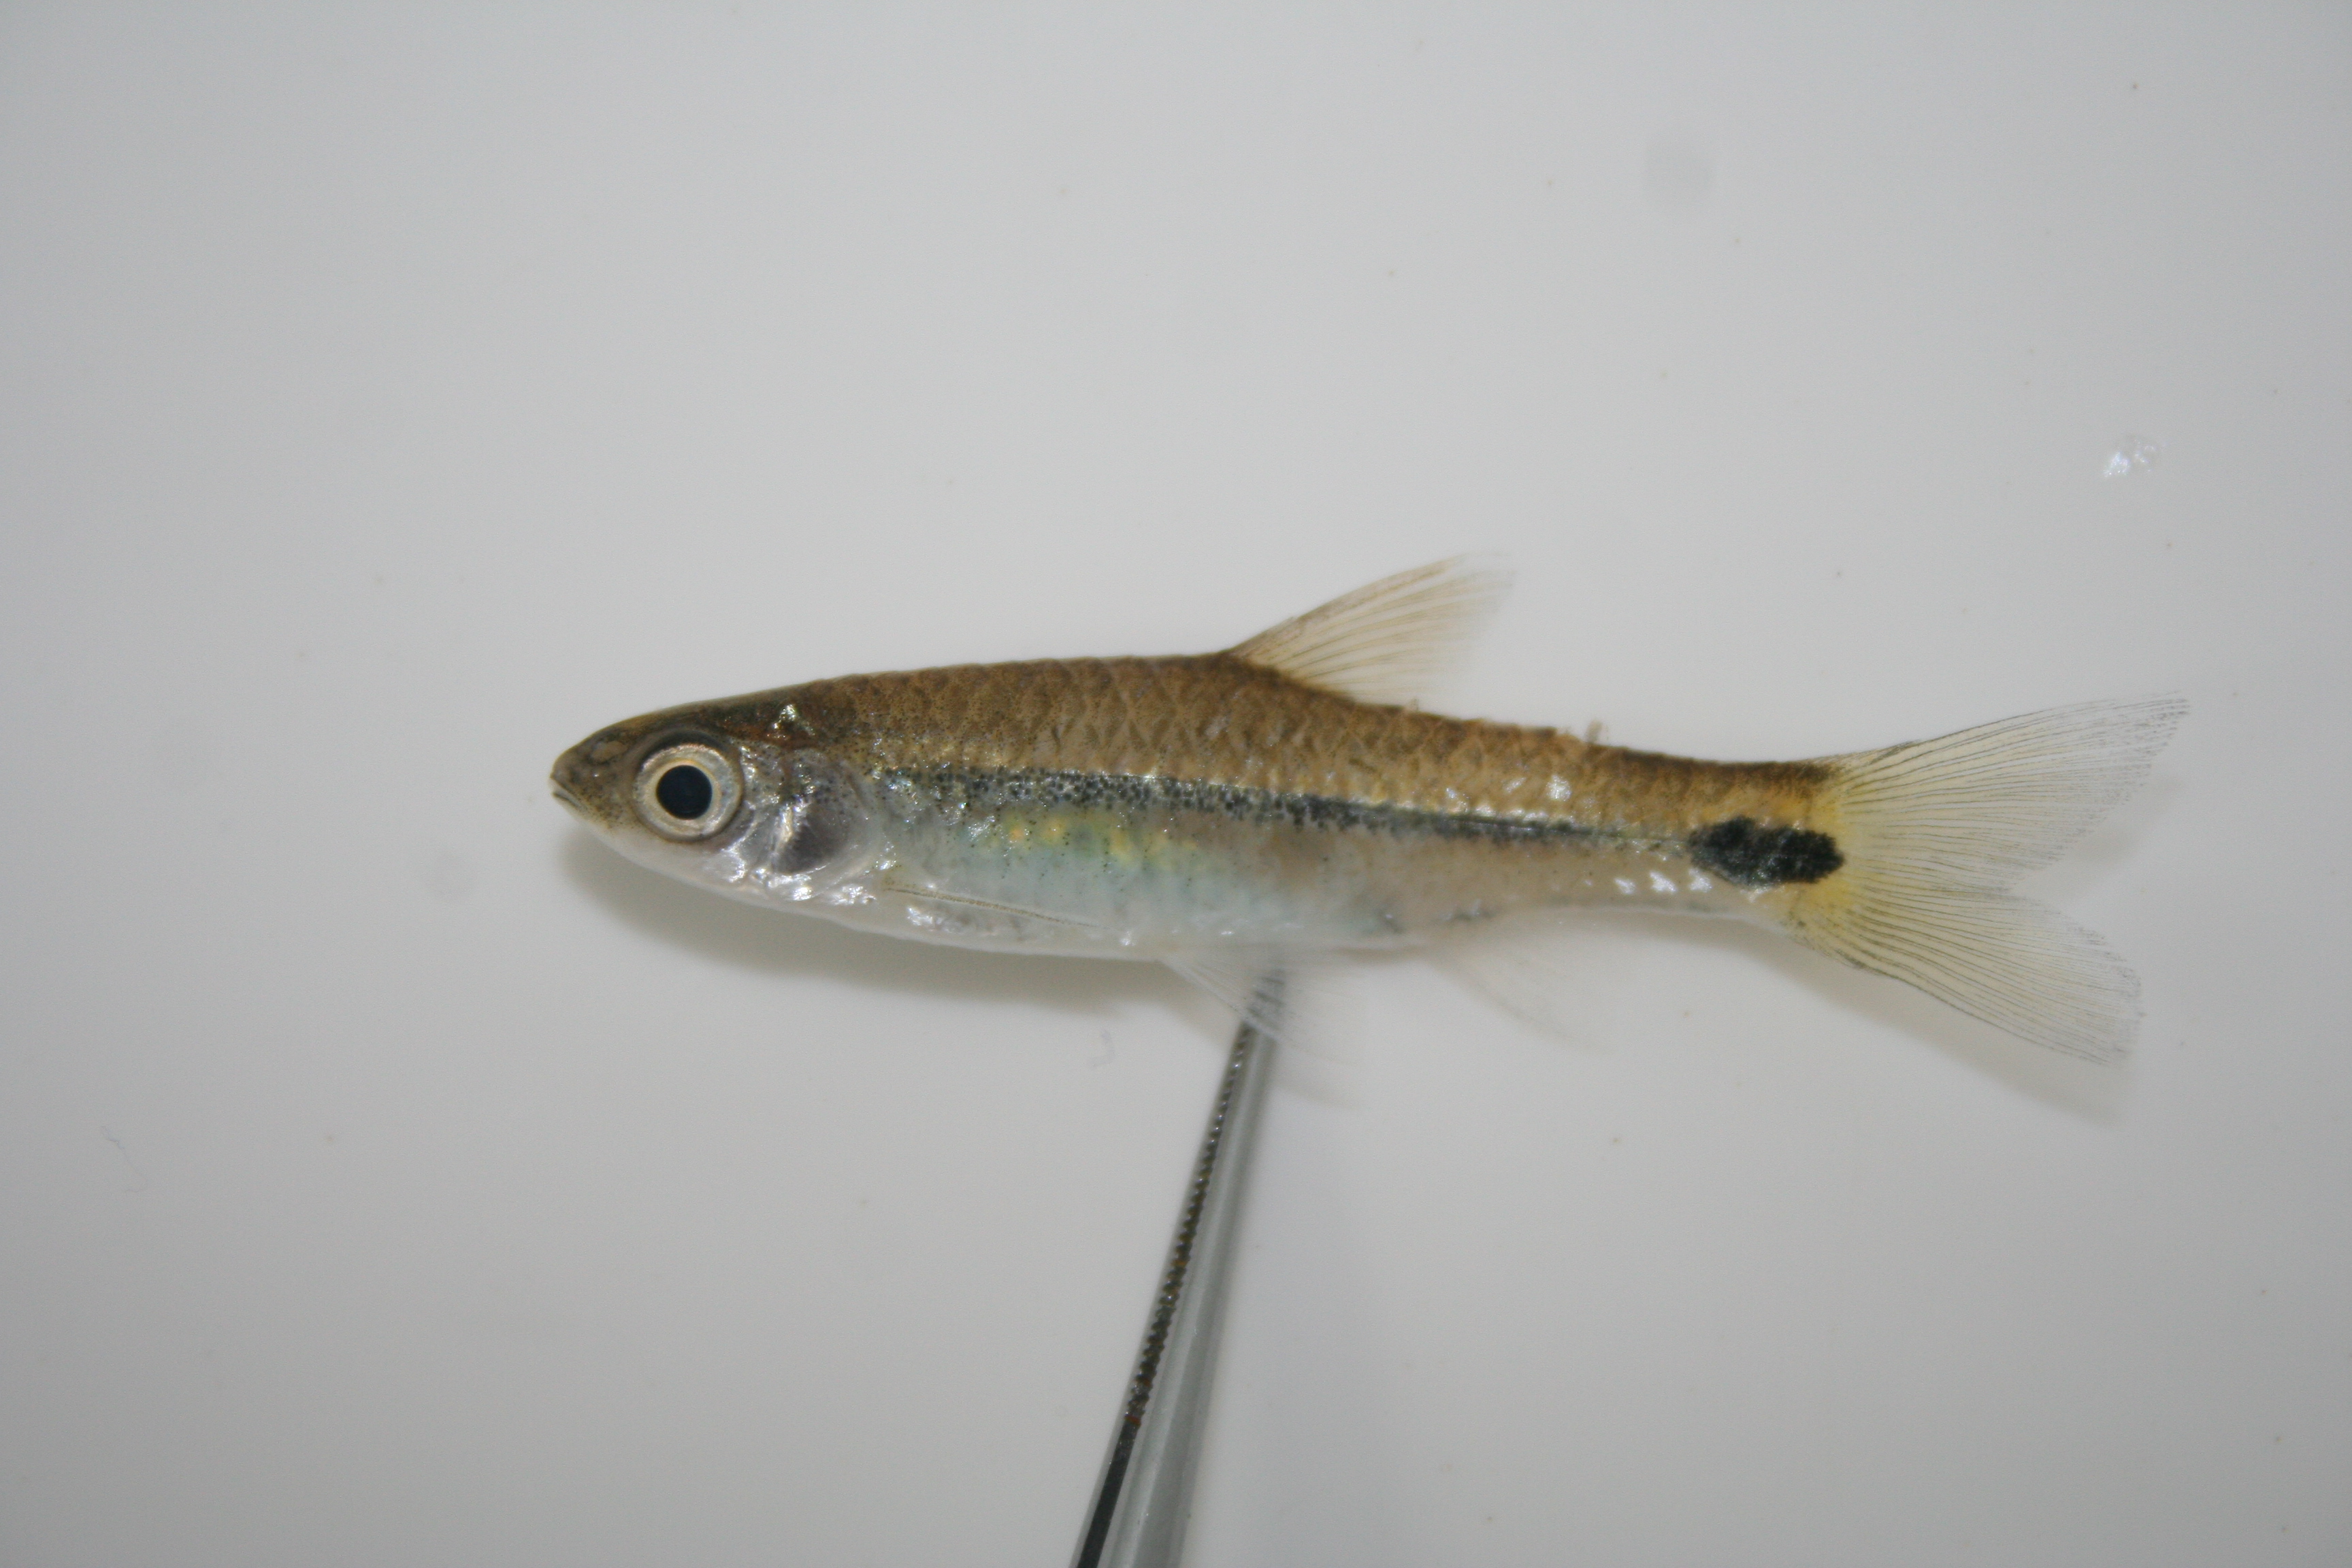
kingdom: Animalia
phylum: Chordata
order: Cypriniformes
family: Cyprinidae
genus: Barbus
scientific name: Barbus
